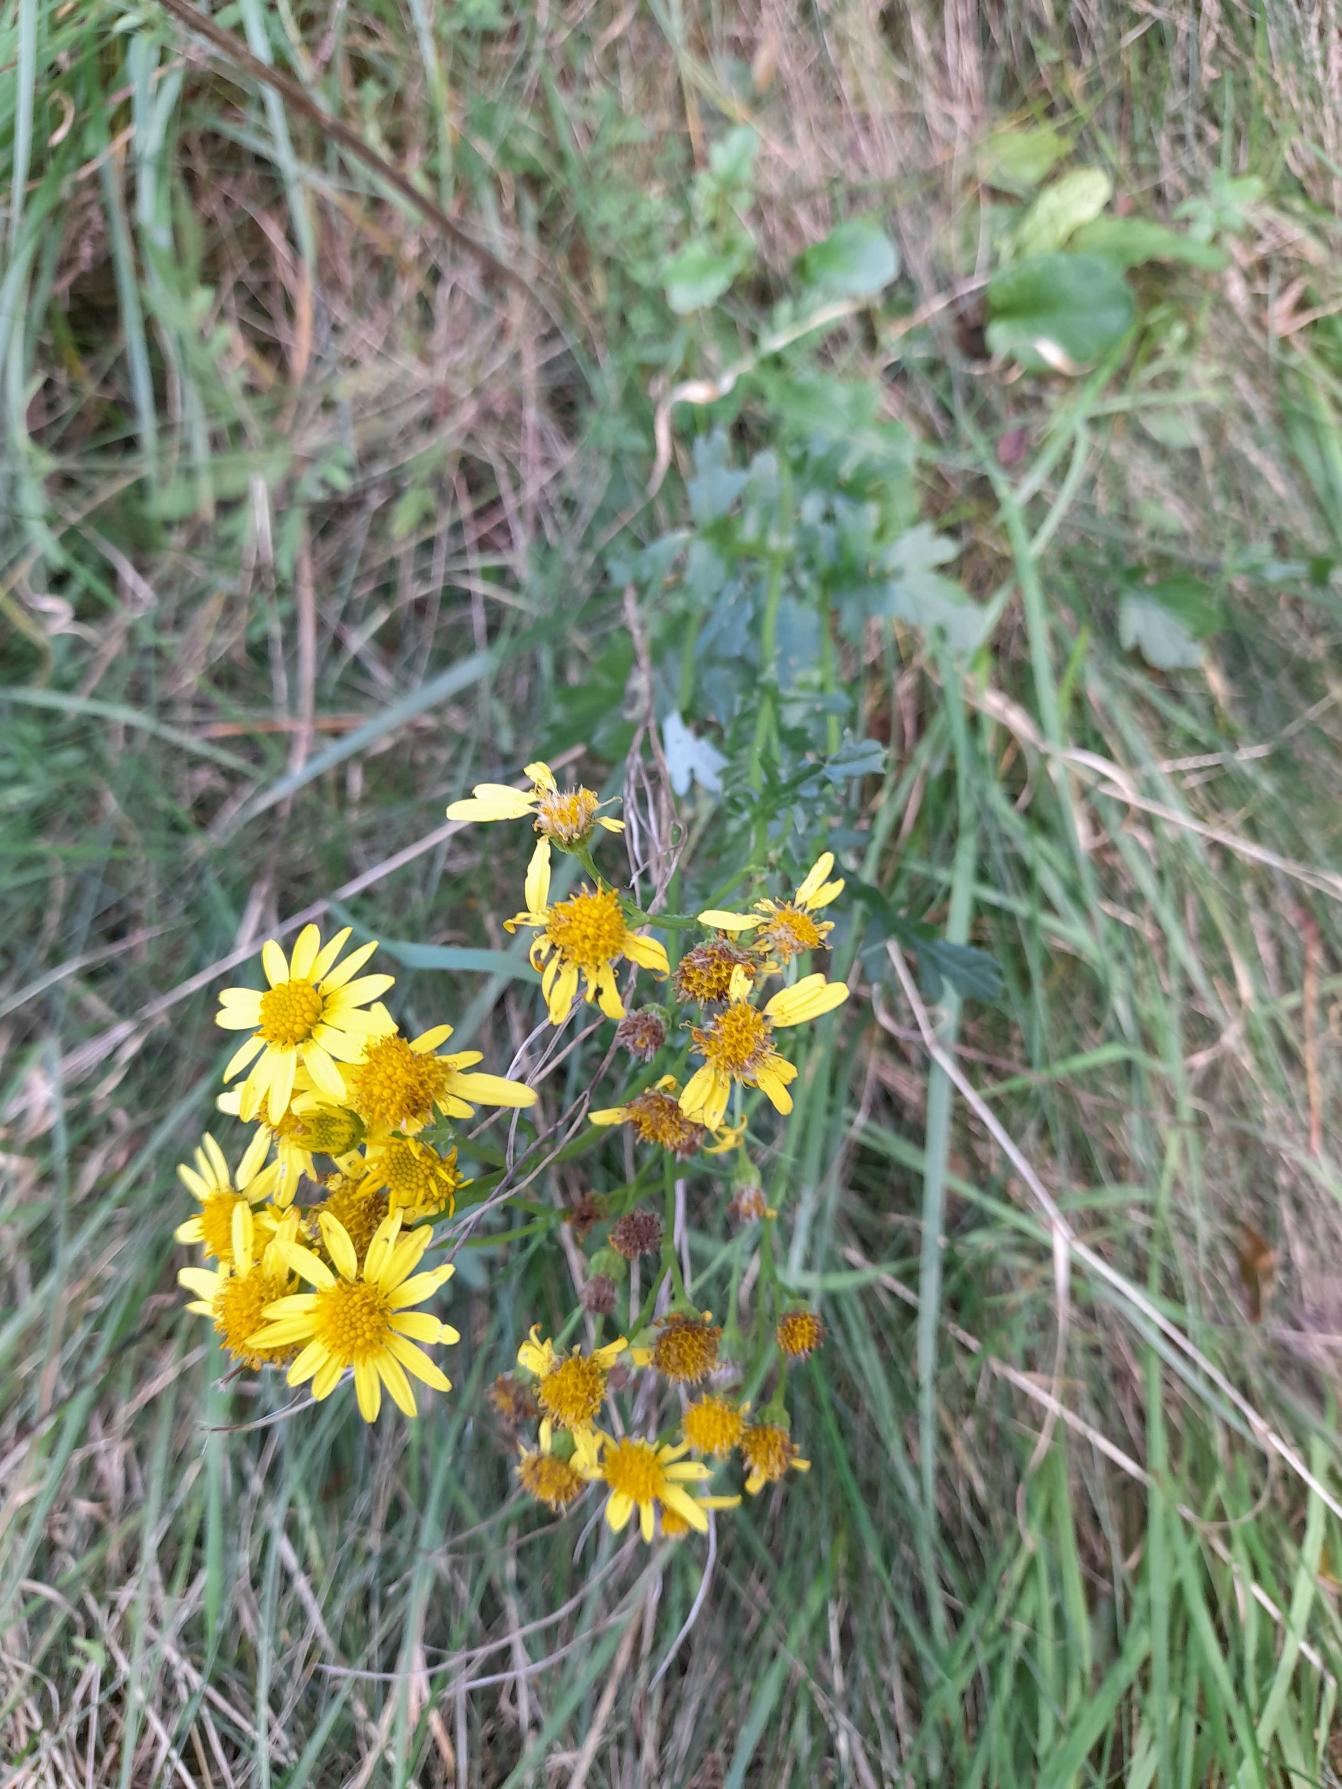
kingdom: Plantae
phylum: Tracheophyta
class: Magnoliopsida
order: Asterales
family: Asteraceae
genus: Jacobaea
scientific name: Jacobaea vulgaris
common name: Eng-brandbæger
